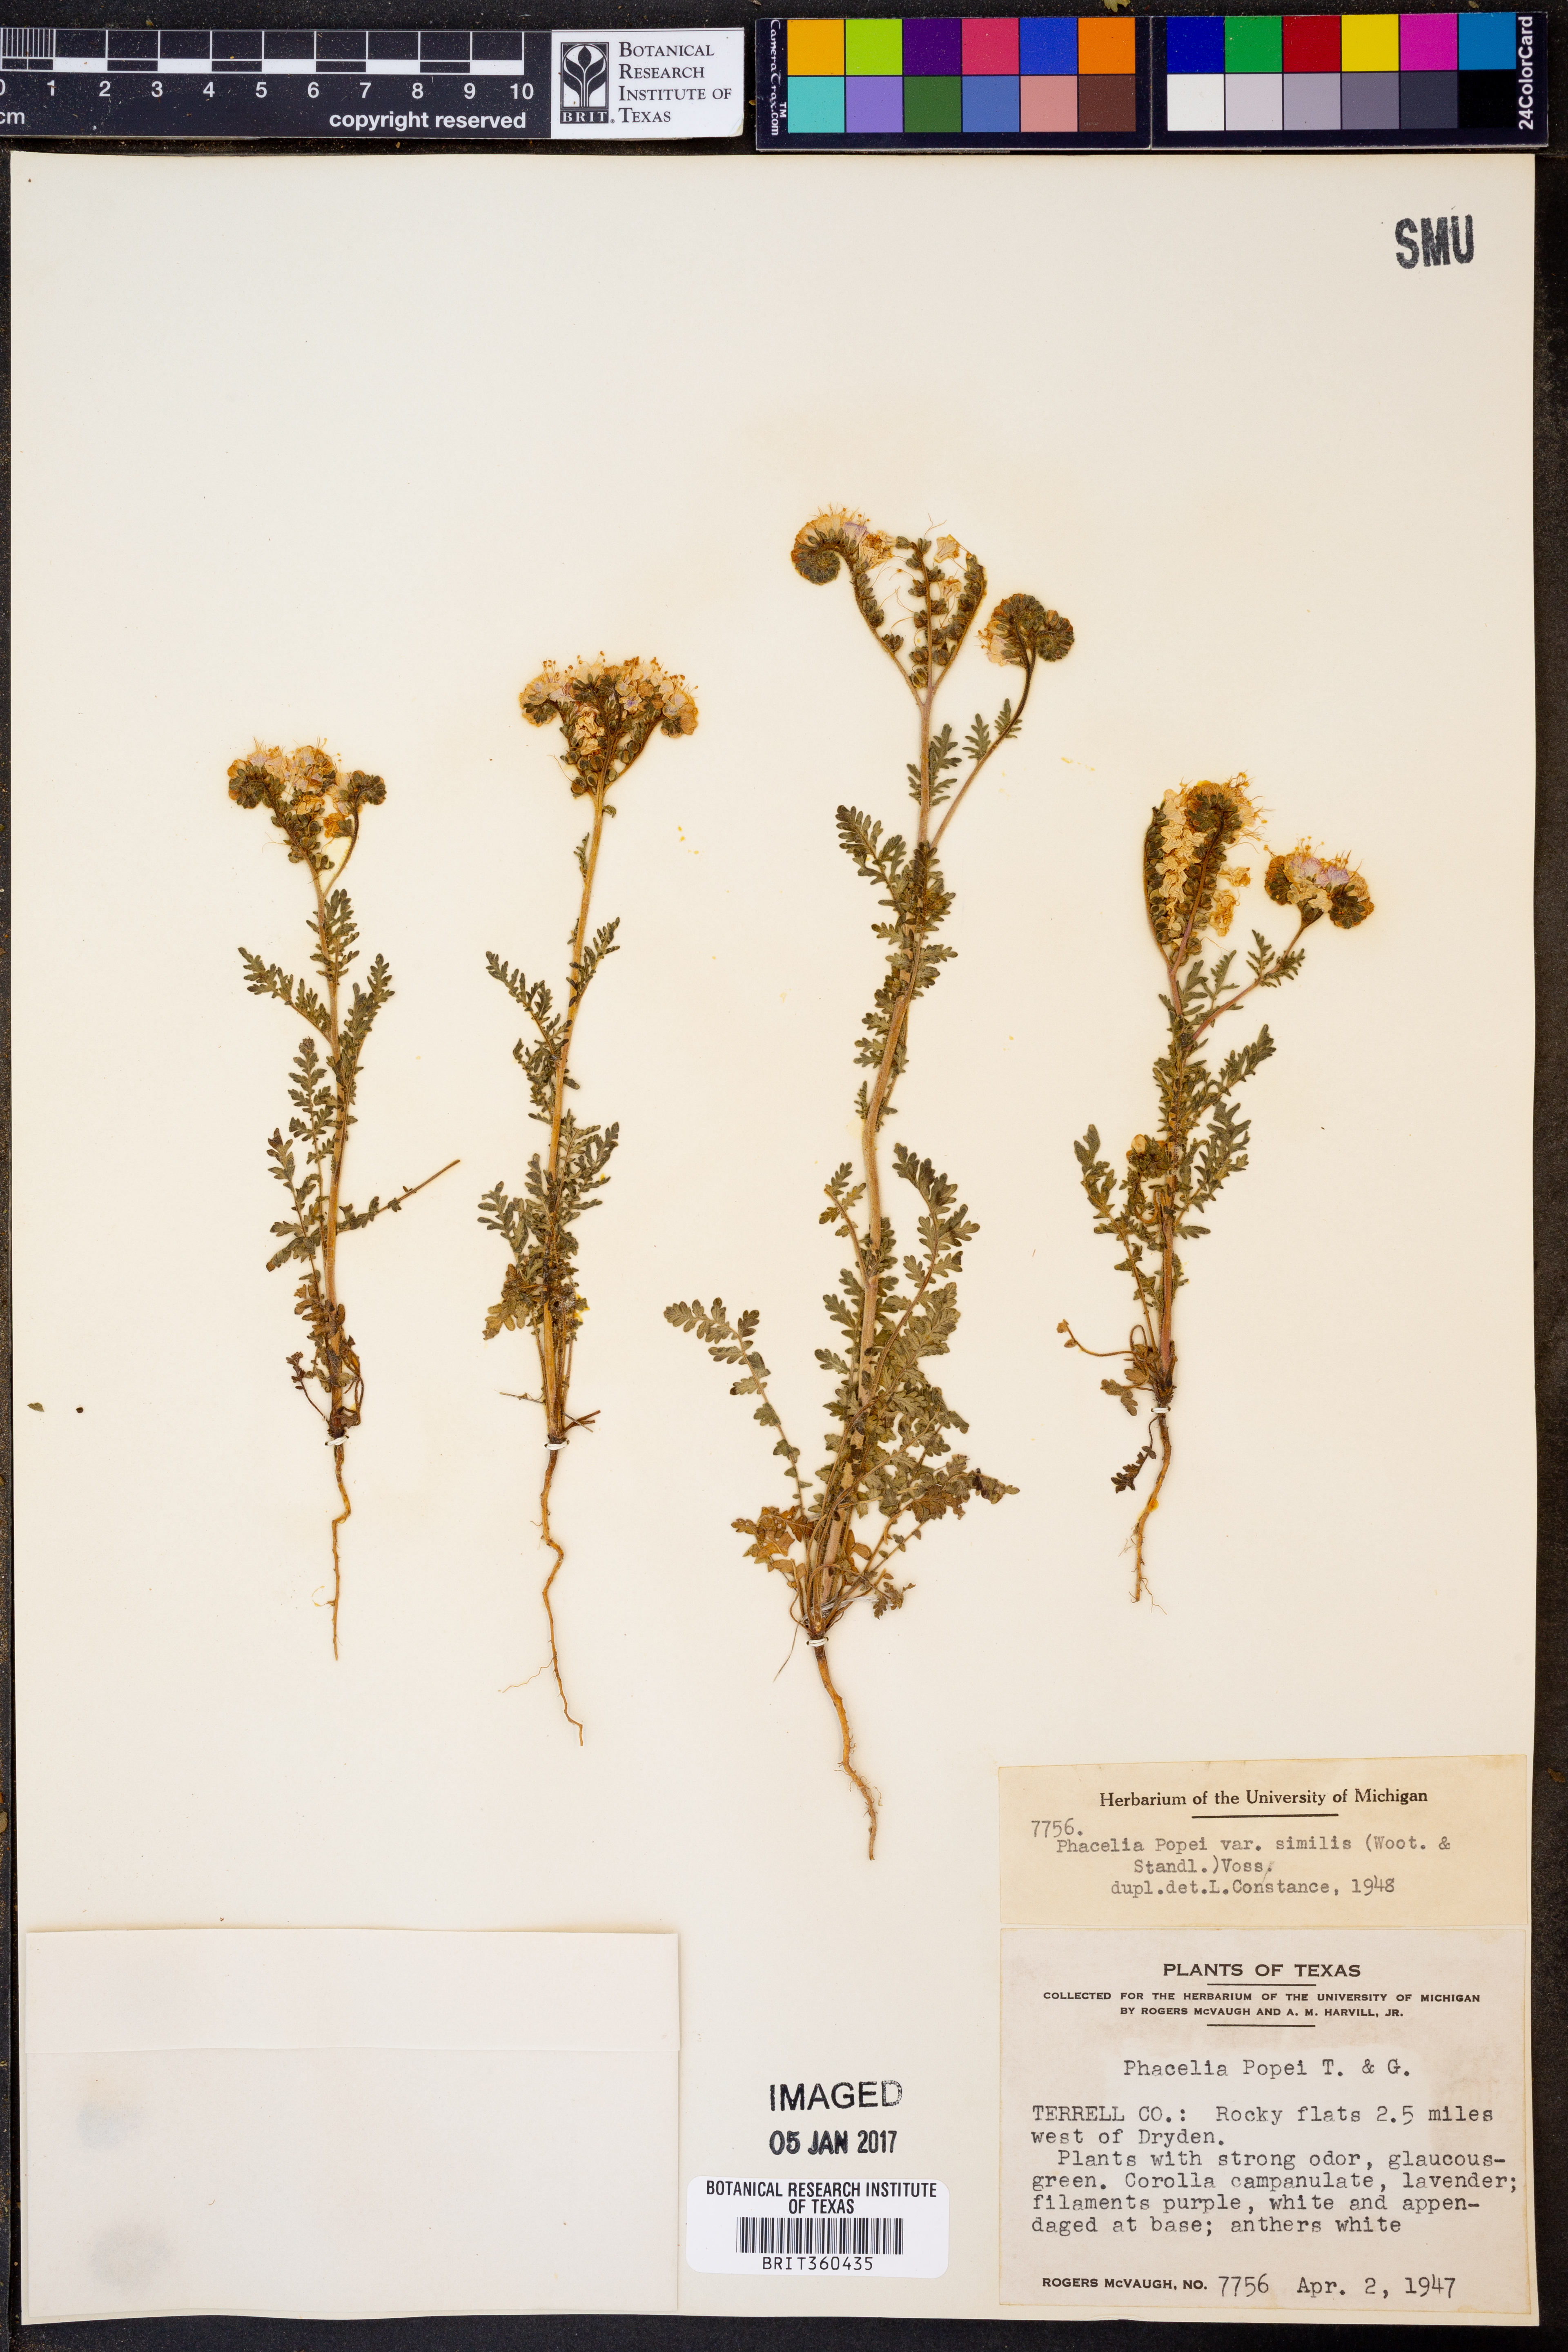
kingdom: Plantae
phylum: Tracheophyta
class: Magnoliopsida
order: Boraginales
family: Hydrophyllaceae
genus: Phacelia
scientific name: Phacelia popei
